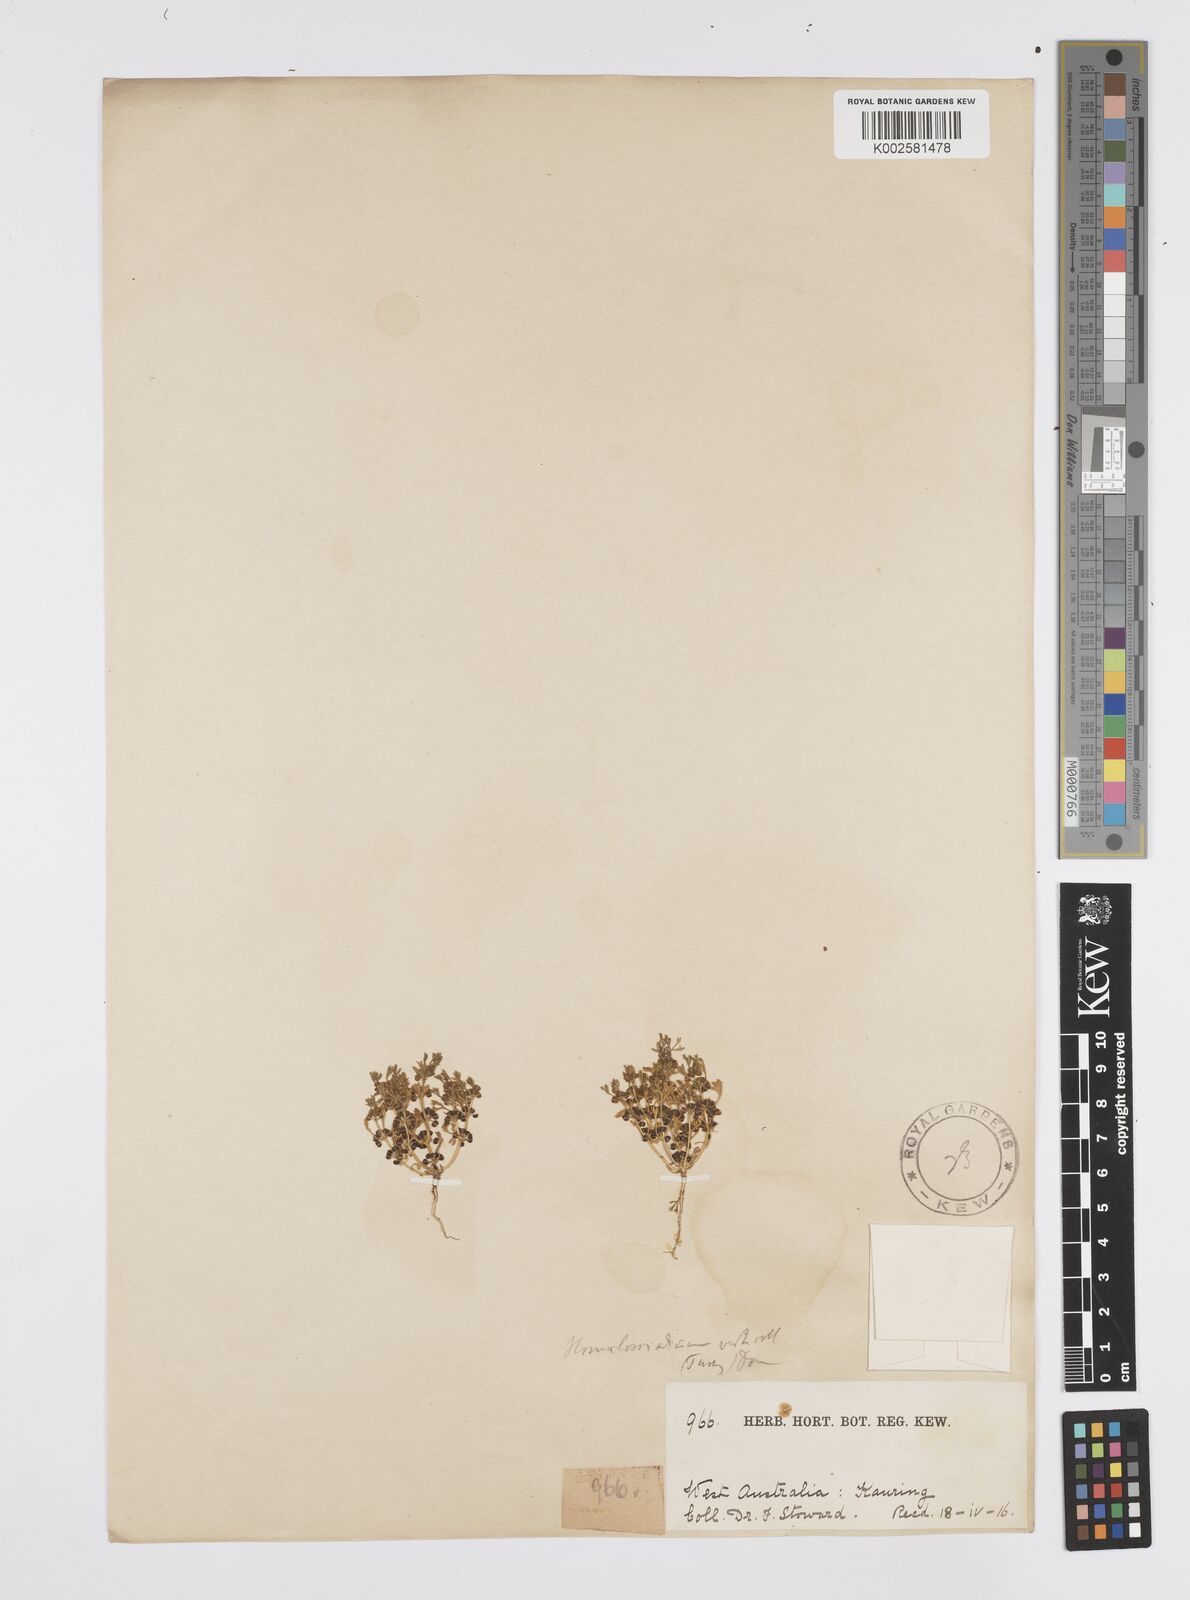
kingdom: Plantae
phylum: Tracheophyta
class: Magnoliopsida
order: Apiales
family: Apiaceae
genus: Homalosciadium
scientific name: Homalosciadium homalocarpum
